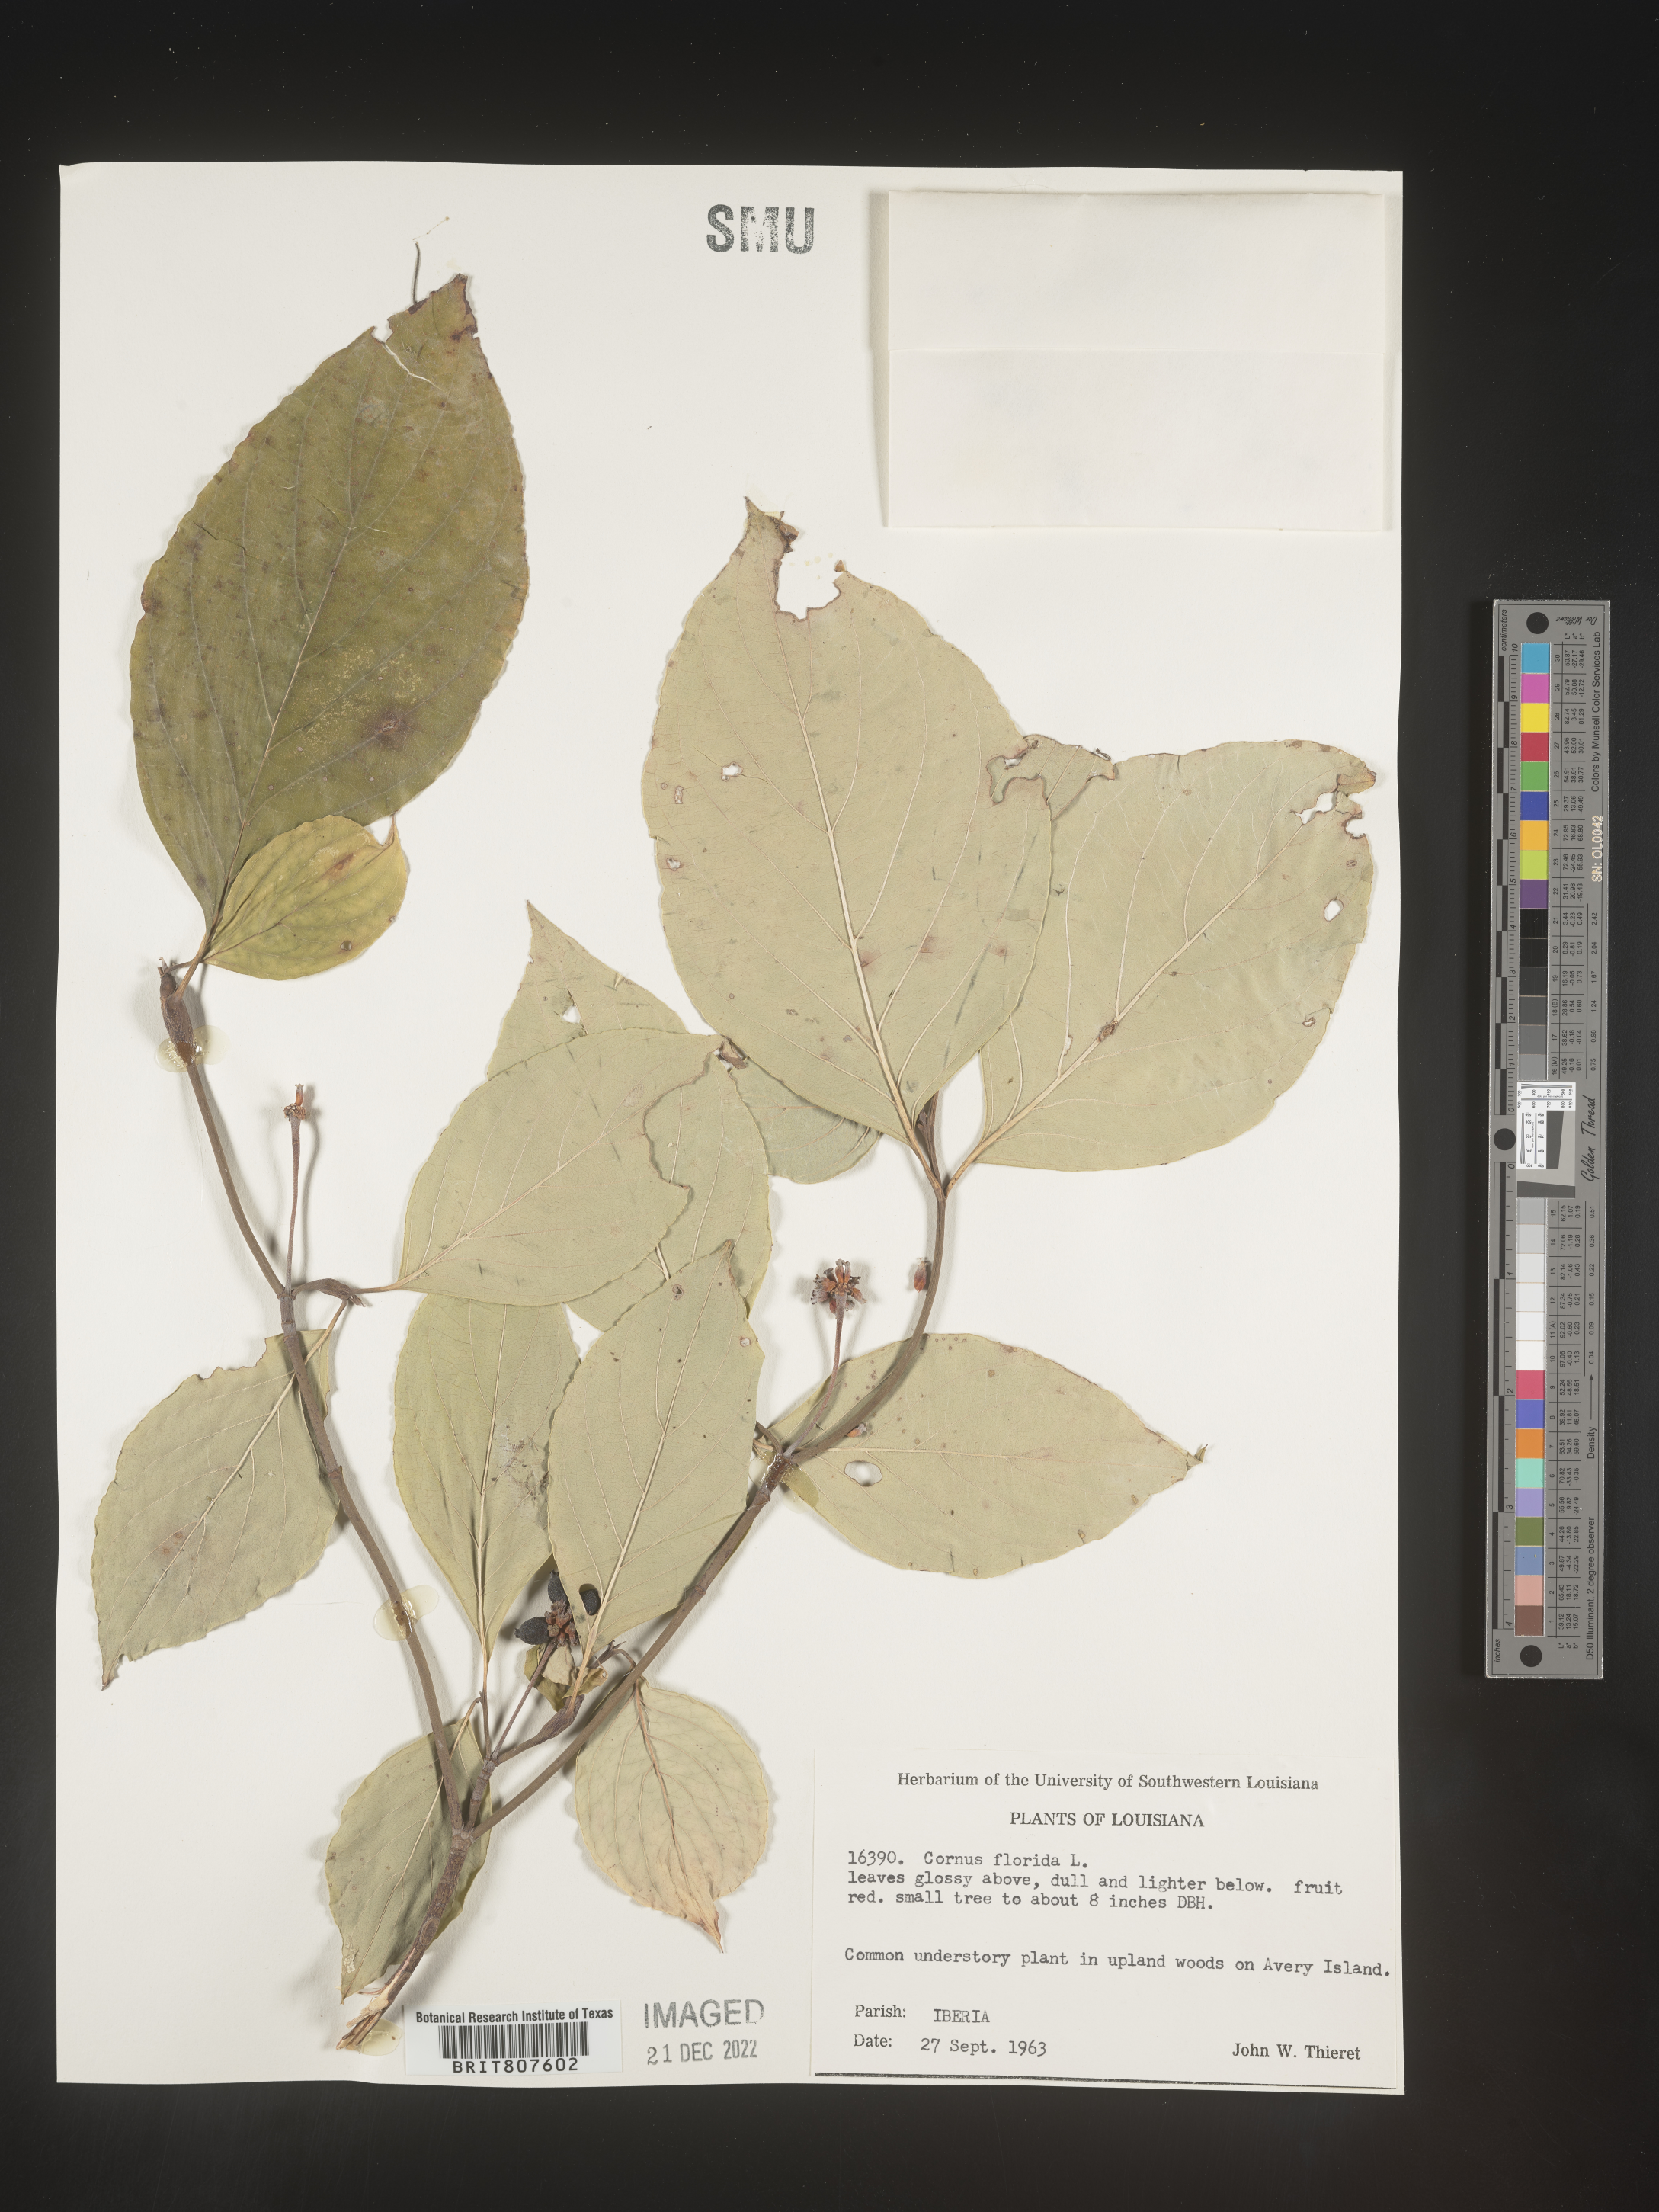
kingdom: Plantae
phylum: Tracheophyta
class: Magnoliopsida
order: Cornales
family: Cornaceae
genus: Cornus
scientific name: Cornus florida
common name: Flowering dogwood
